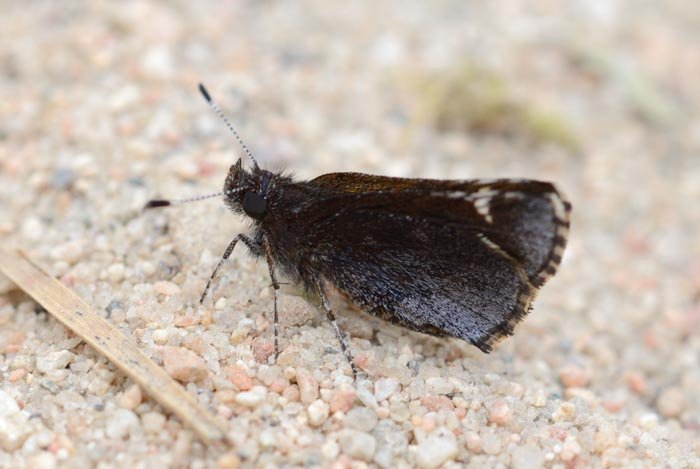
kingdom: Animalia
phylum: Arthropoda
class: Insecta
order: Lepidoptera
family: Hesperiidae
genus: Mastor
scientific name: Mastor hegon
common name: Pepper and Salt Skipper
